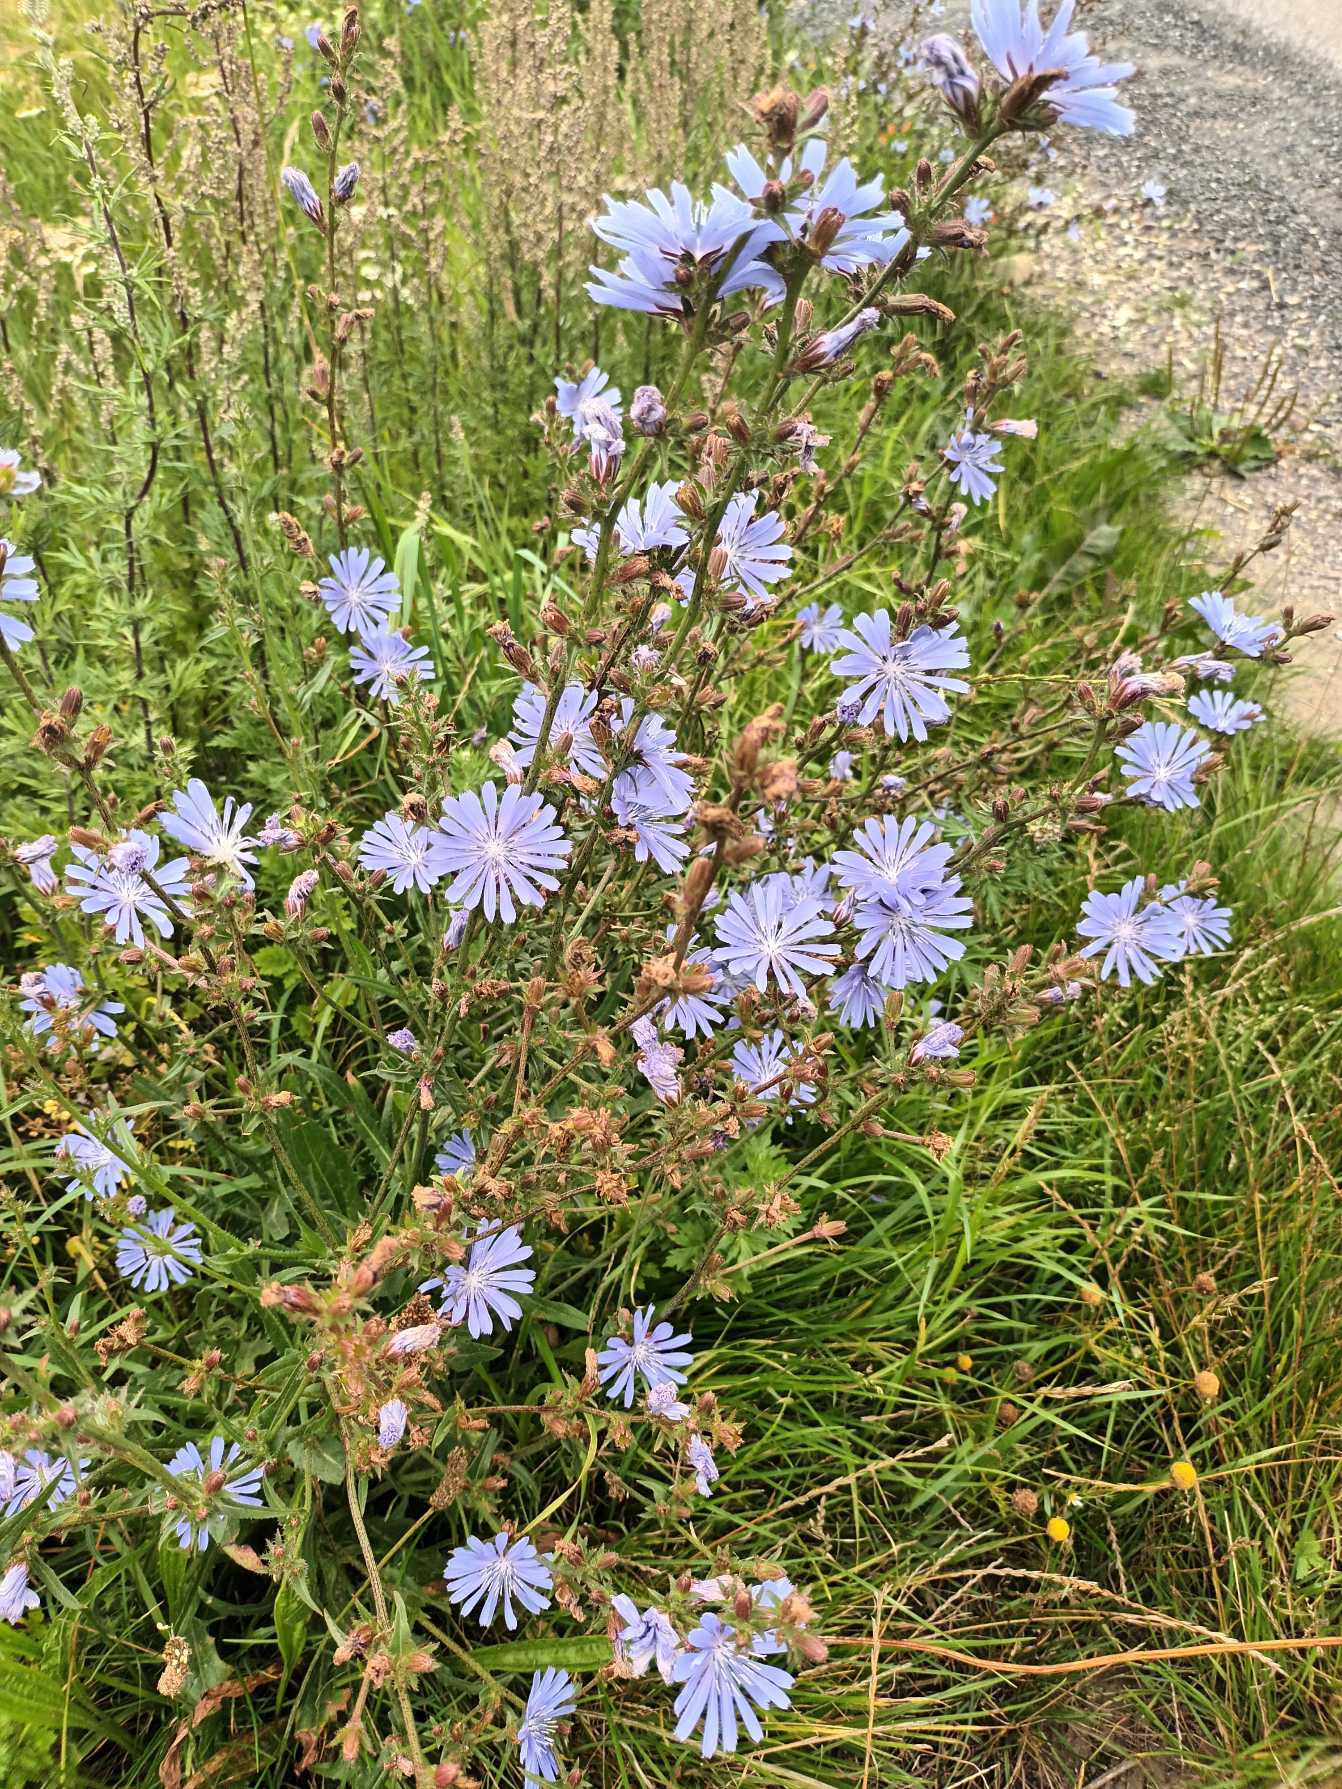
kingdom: Plantae
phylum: Tracheophyta
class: Magnoliopsida
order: Asterales
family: Asteraceae
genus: Cichorium
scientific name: Cichorium intybus
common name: Cikorie
